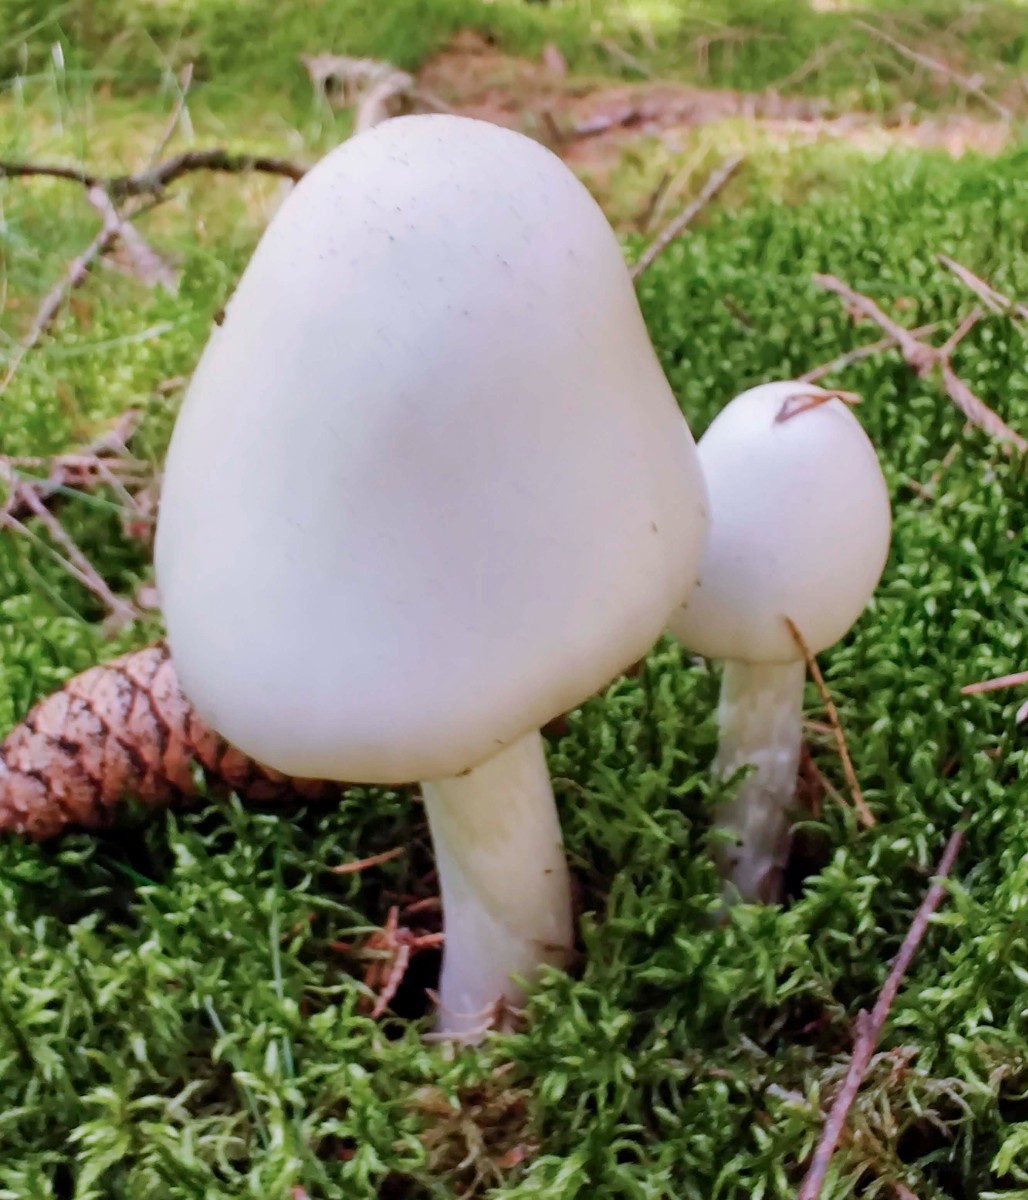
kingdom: Fungi
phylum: Basidiomycota
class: Agaricomycetes
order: Agaricales
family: Amanitaceae
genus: Amanita
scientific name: Amanita virosa
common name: snehvid fluesvamp
